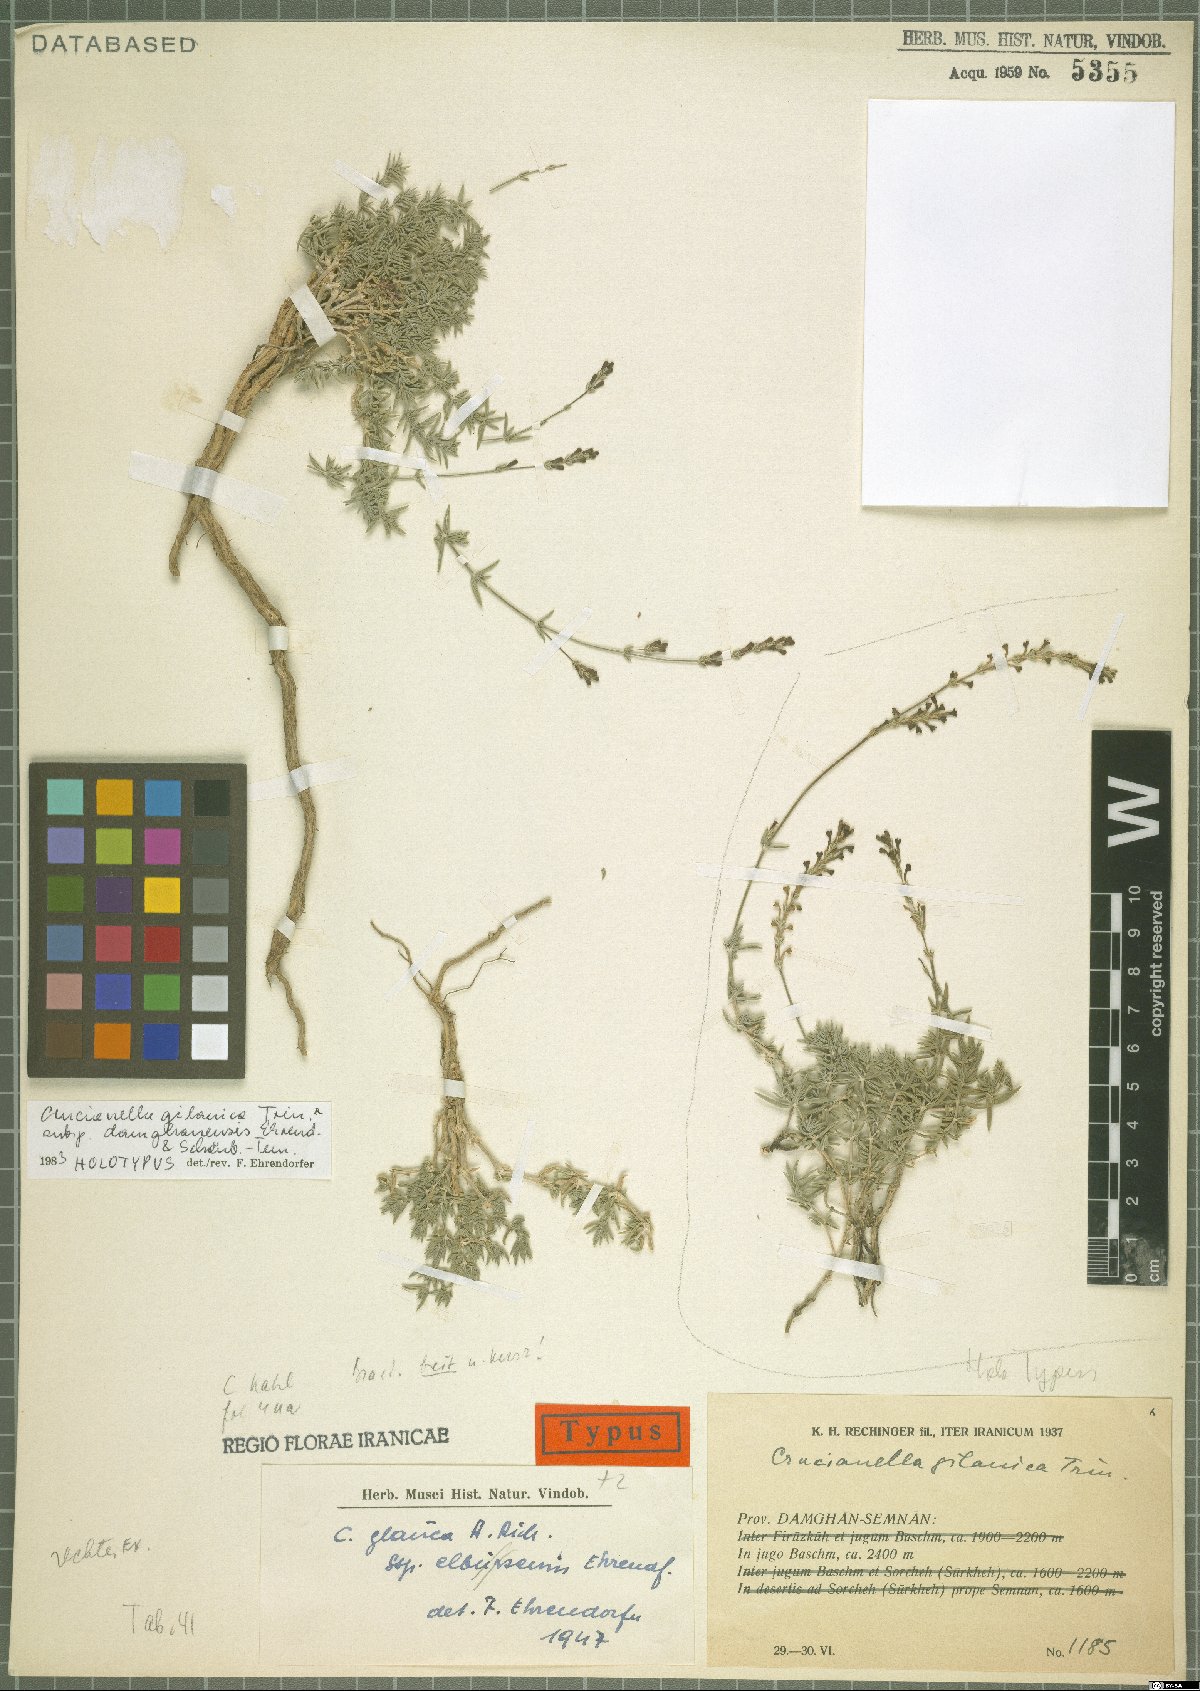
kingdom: Plantae
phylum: Tracheophyta
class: Magnoliopsida
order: Gentianales
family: Rubiaceae
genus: Crucianella
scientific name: Crucianella gilanica
